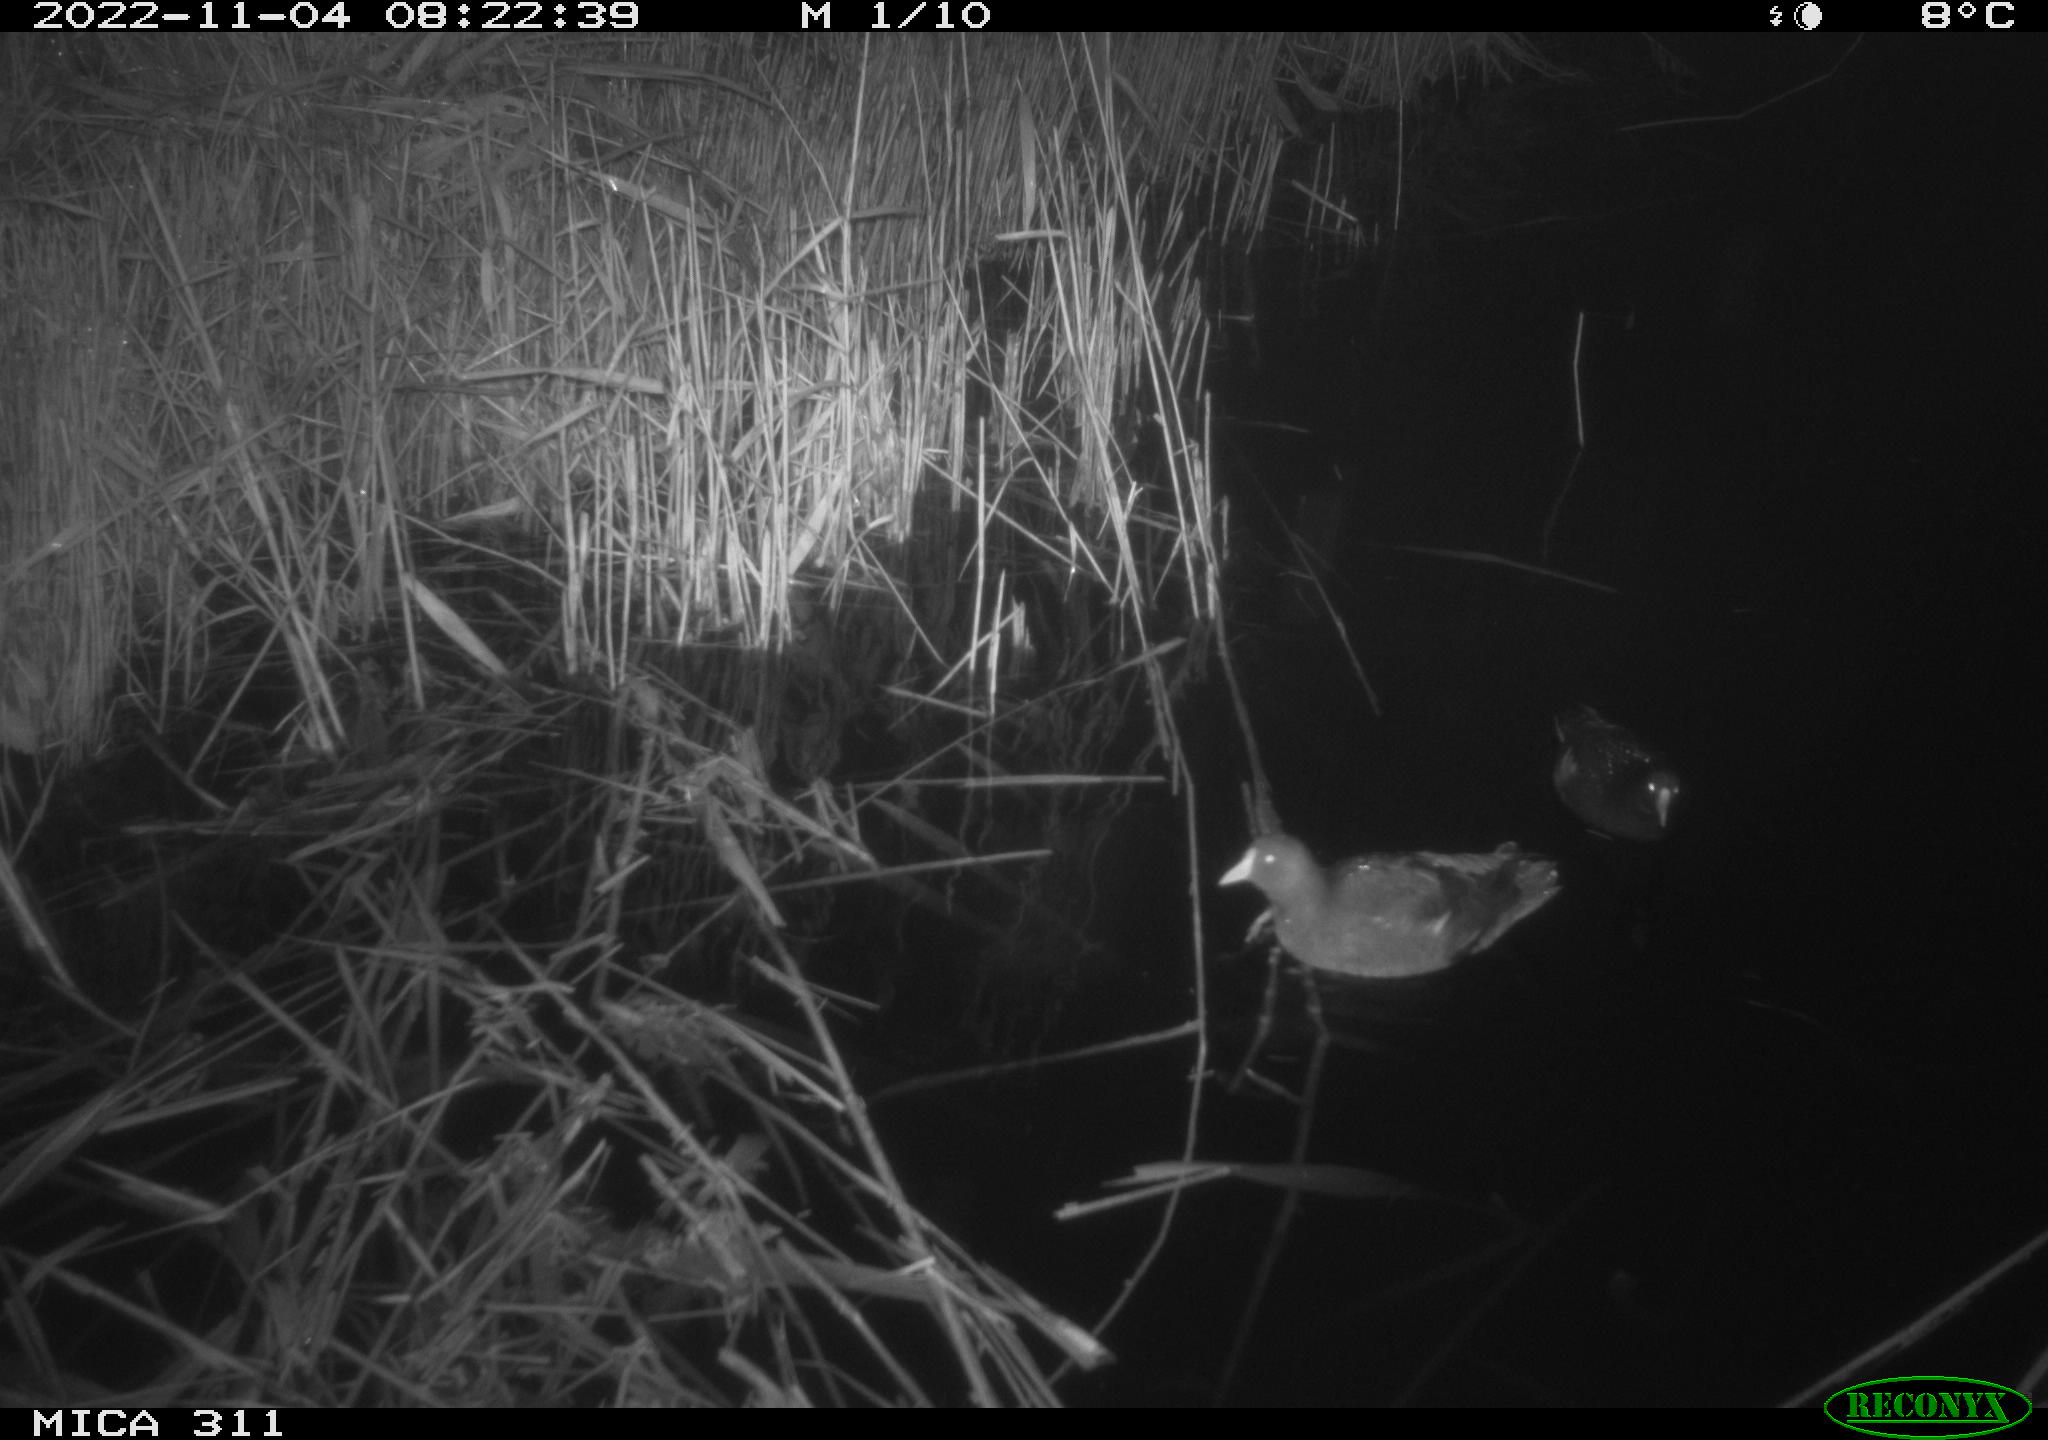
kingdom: Animalia
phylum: Chordata
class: Aves
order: Gruiformes
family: Rallidae
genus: Gallinula
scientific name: Gallinula chloropus
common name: Common moorhen
